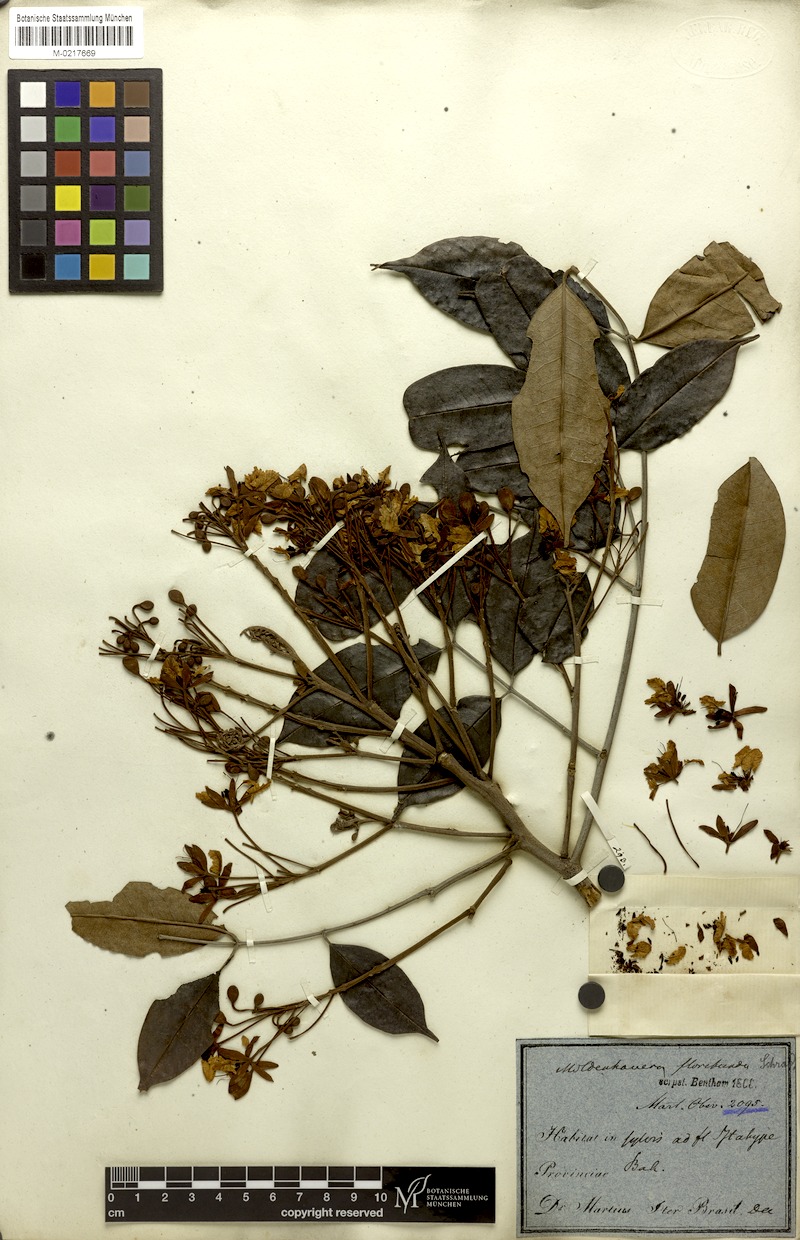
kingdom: Plantae
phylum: Tracheophyta
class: Magnoliopsida
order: Fabales
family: Fabaceae
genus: Moldenhawera
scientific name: Moldenhawera floribunda
